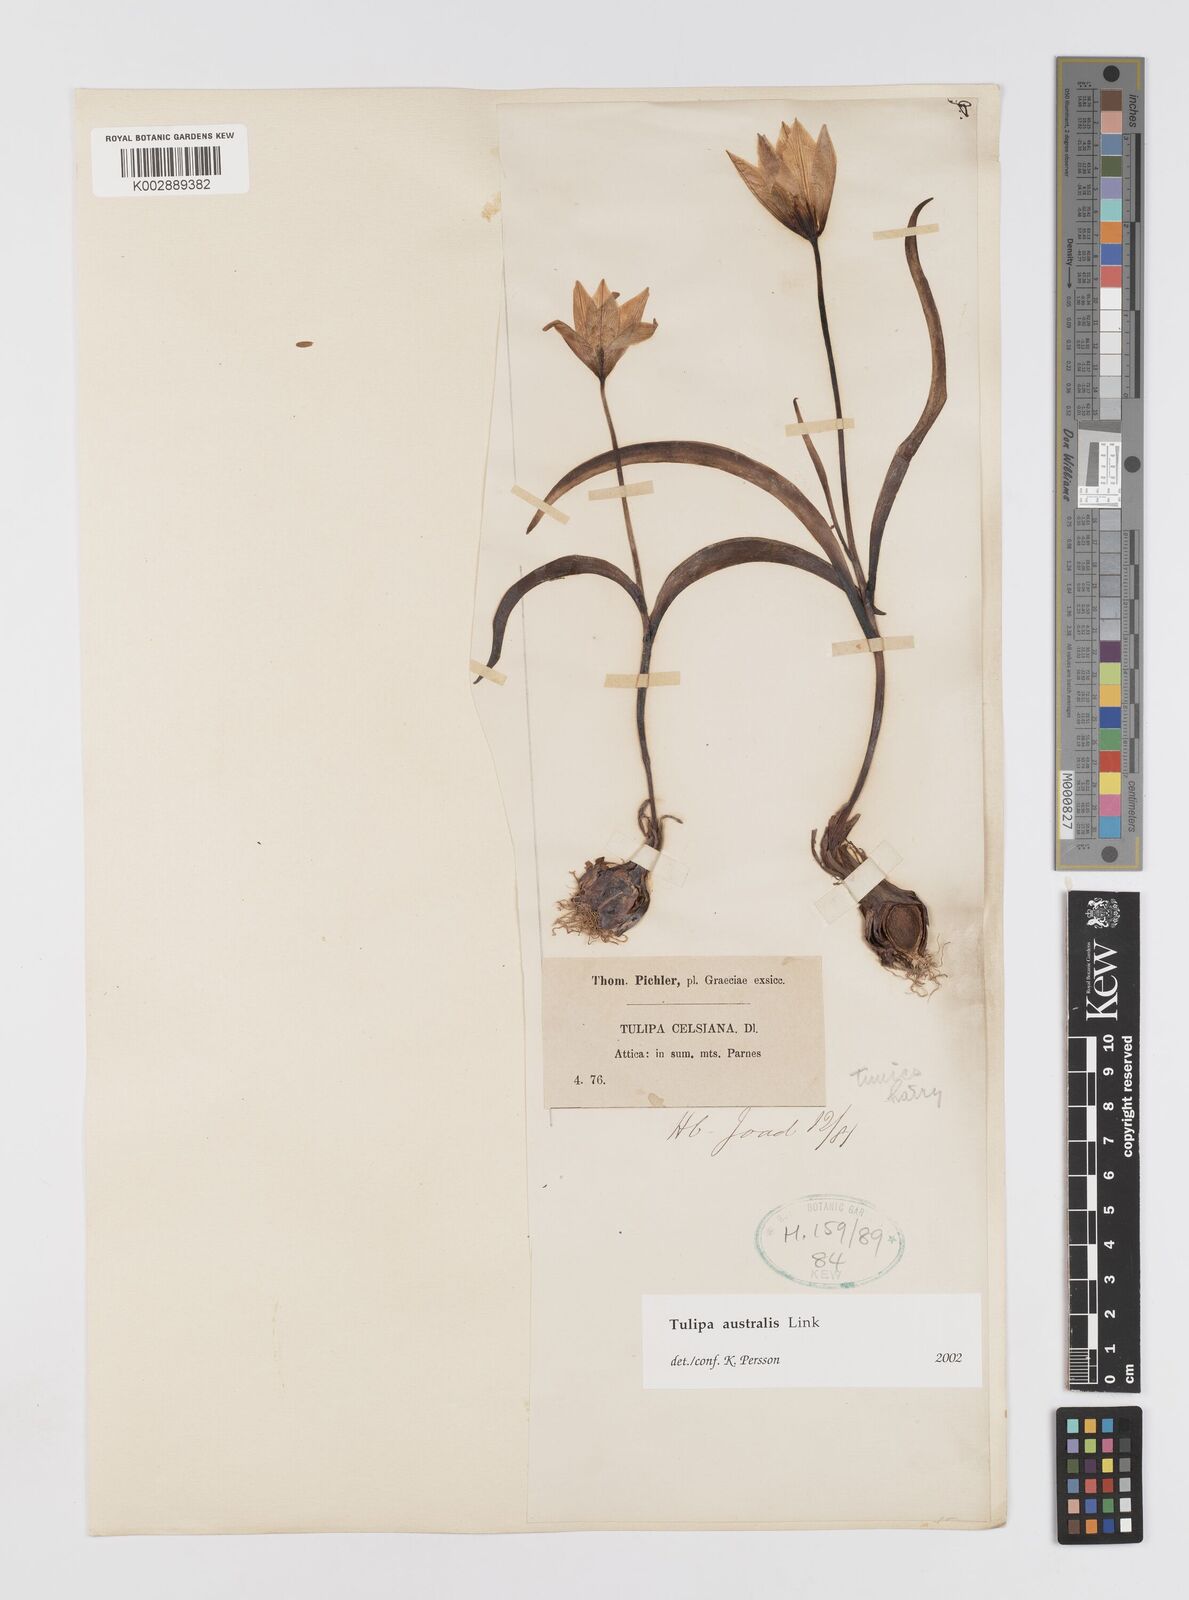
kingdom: Plantae
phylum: Tracheophyta
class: Liliopsida
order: Liliales
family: Liliaceae
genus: Tulipa
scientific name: Tulipa sylvestris
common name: Wild tulip
